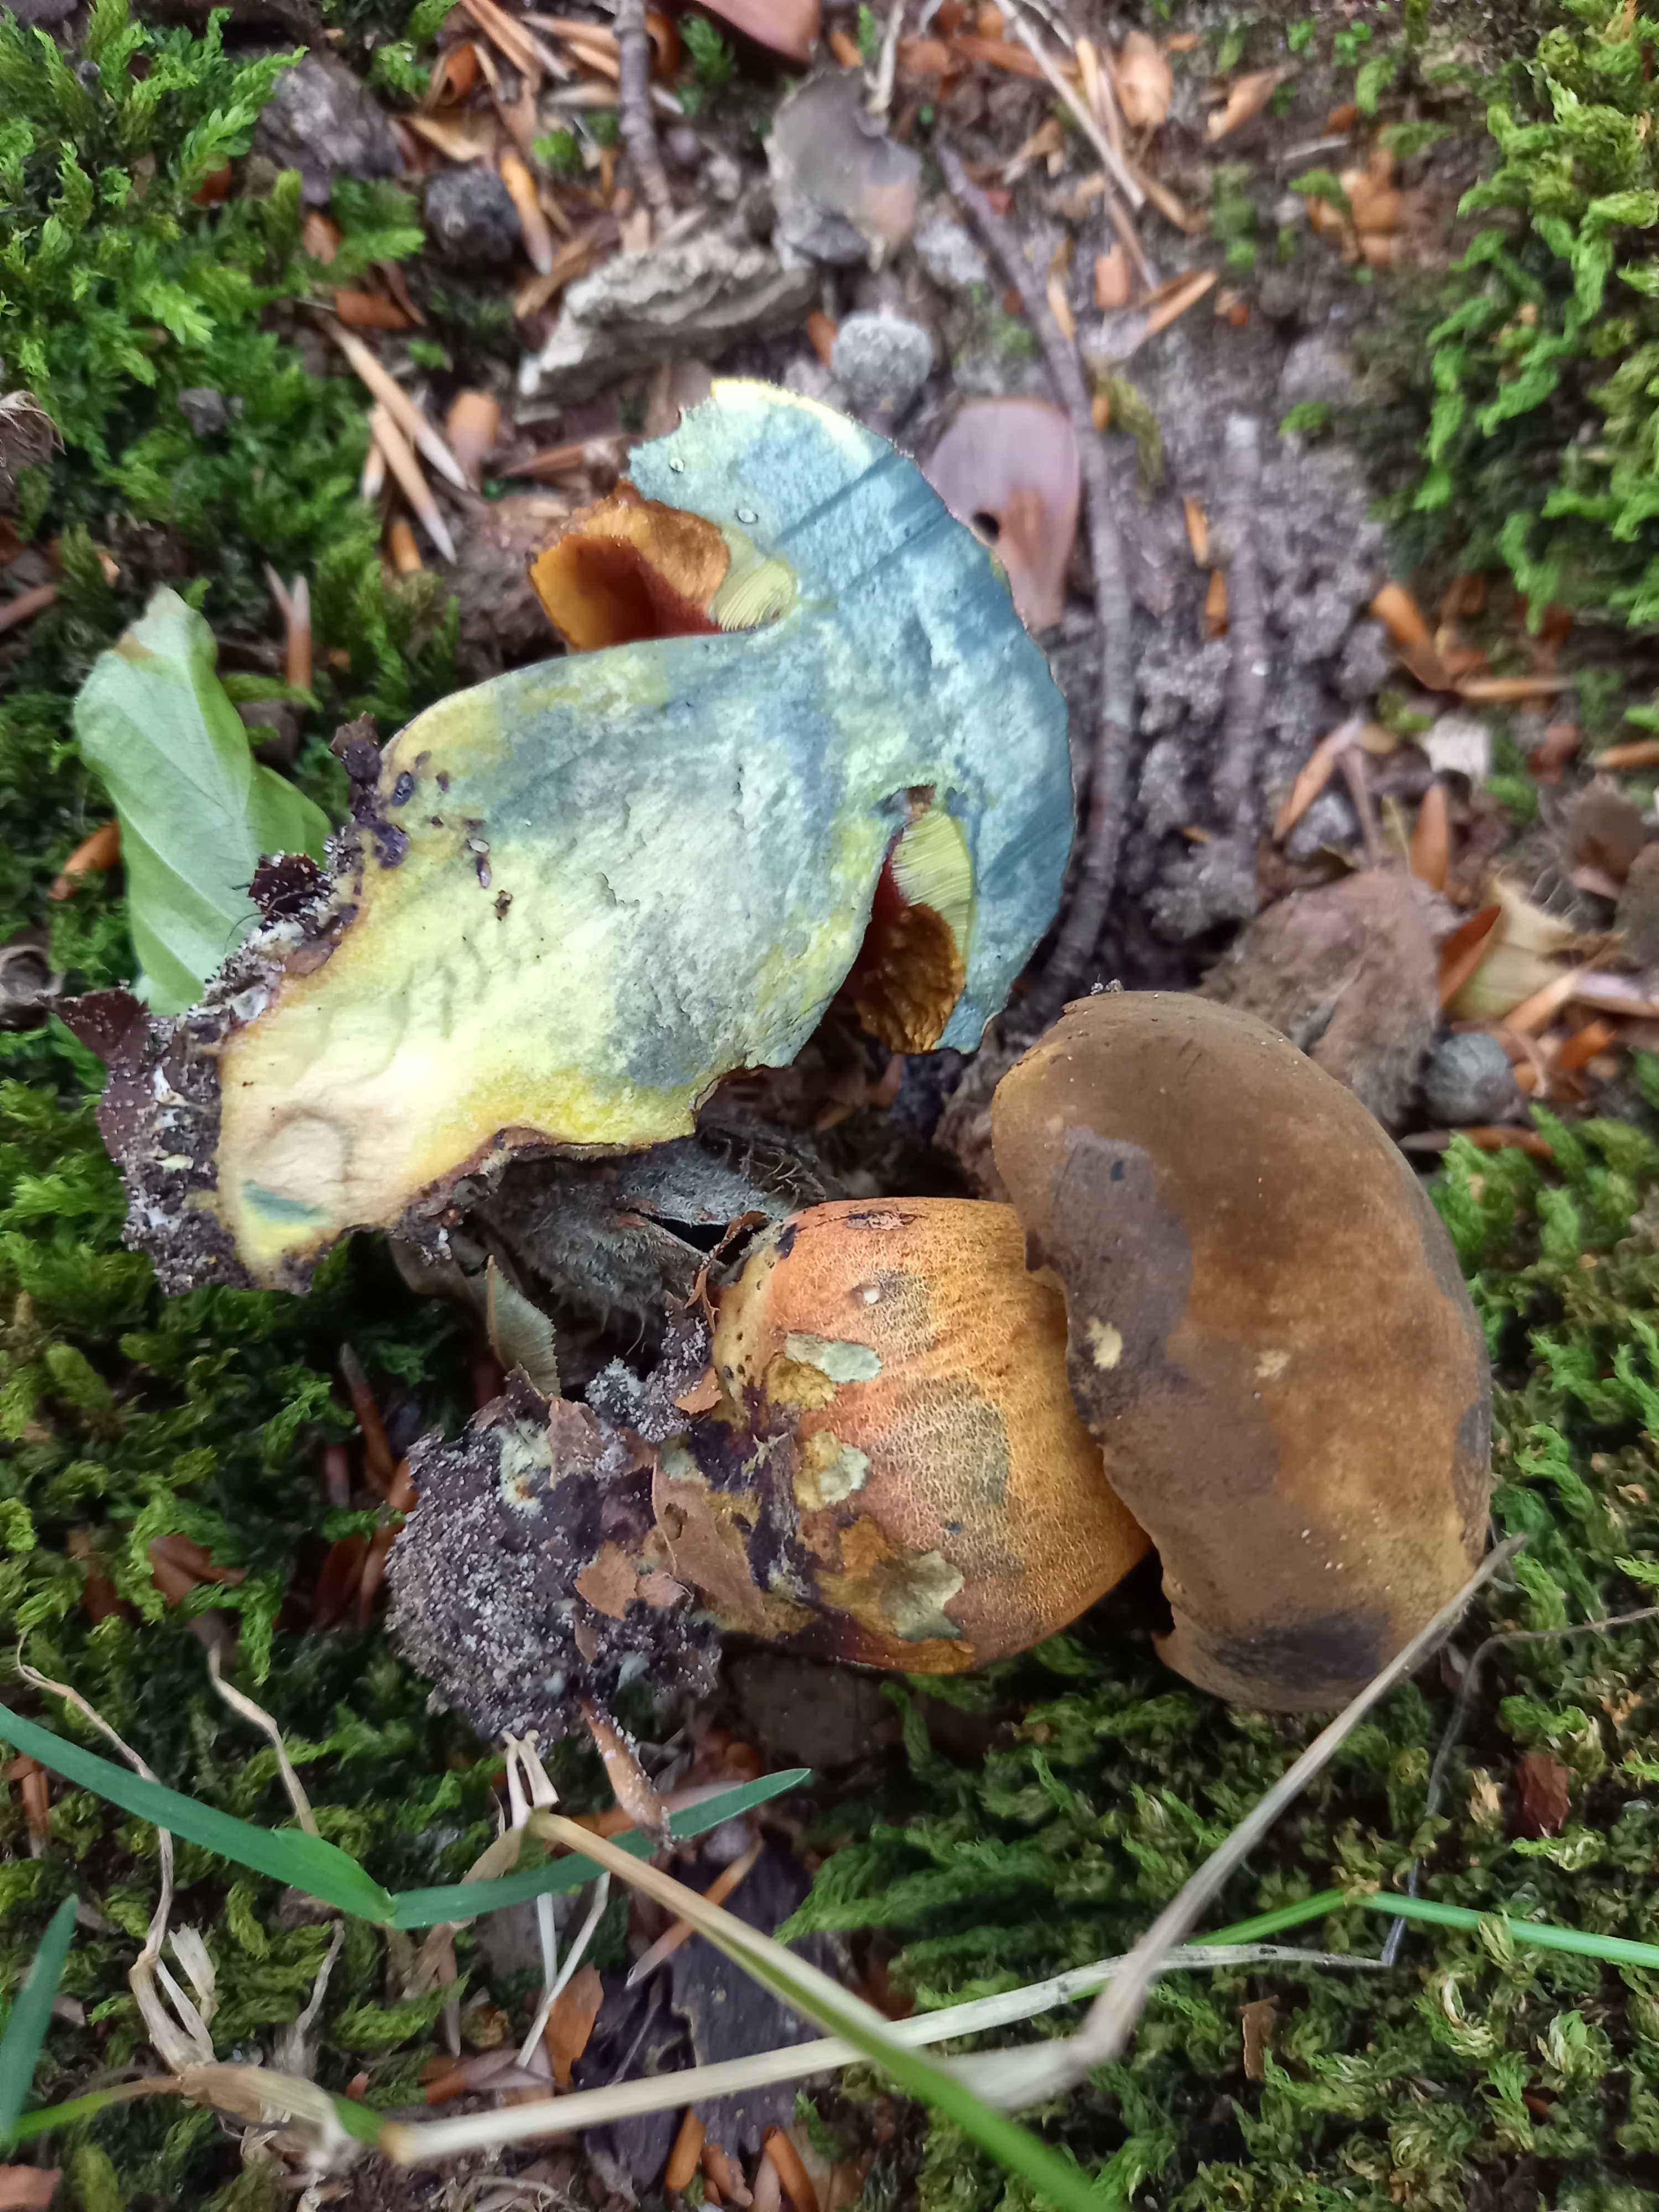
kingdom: Fungi
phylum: Basidiomycota
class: Agaricomycetes
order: Boletales
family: Boletaceae
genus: Neoboletus
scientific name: Neoboletus erythropus
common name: punktstokket indigorørhat
